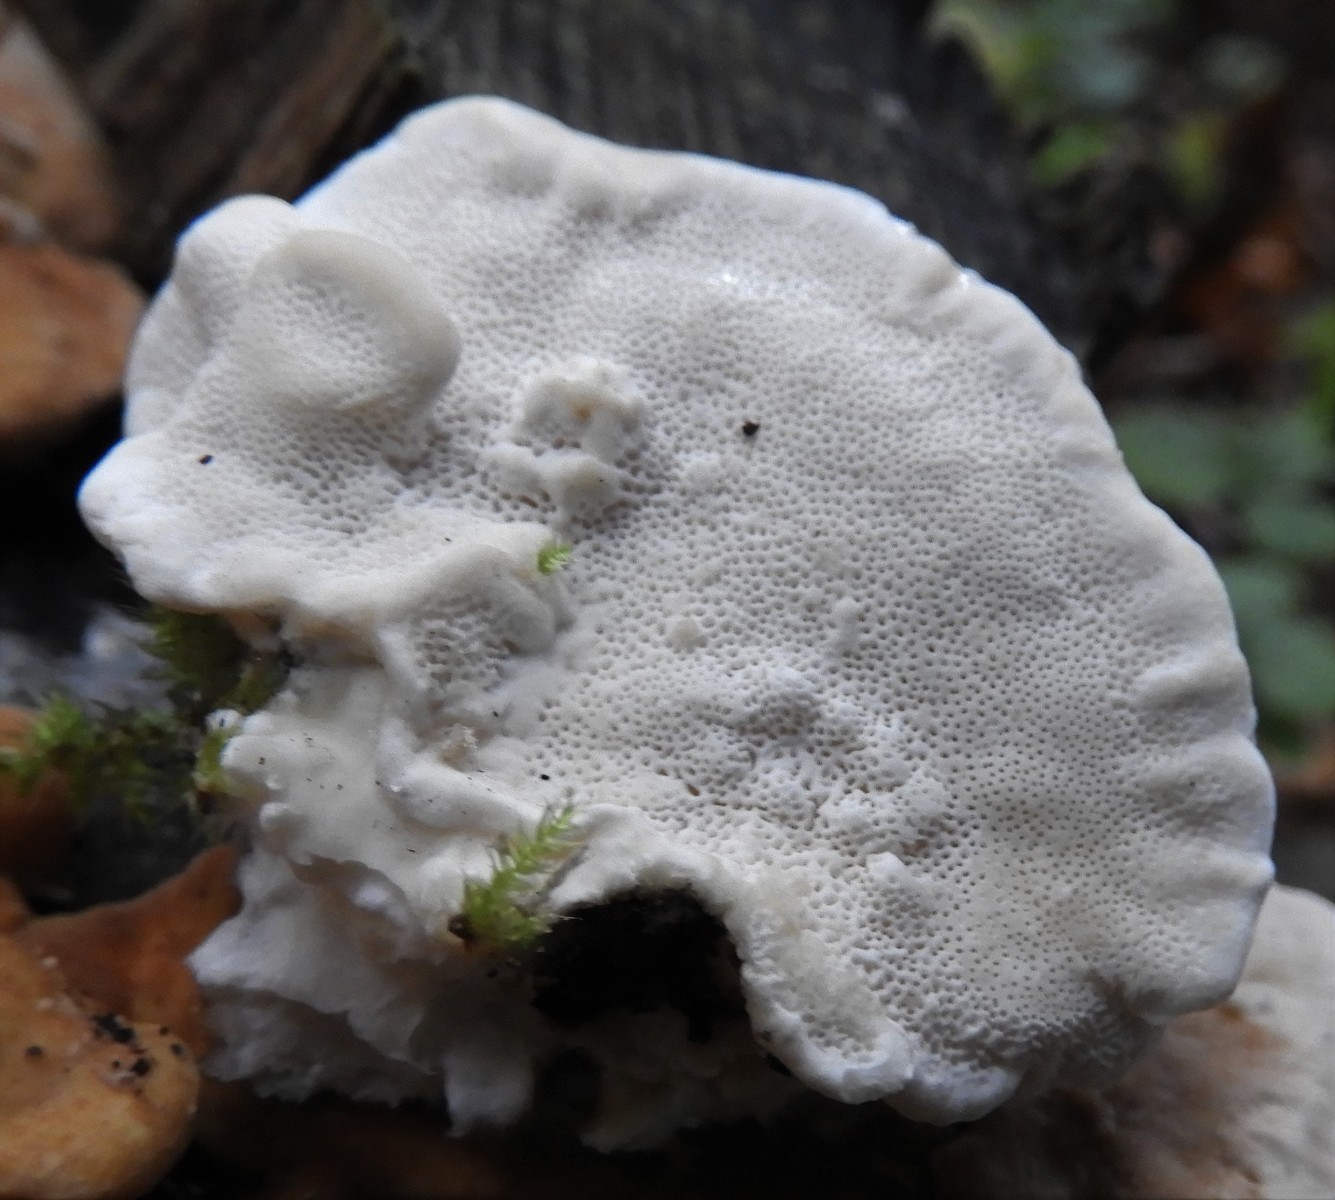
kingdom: Fungi
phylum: Basidiomycota
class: Agaricomycetes
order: Polyporales
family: Polyporaceae
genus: Trametes
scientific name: Trametes ochracea
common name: bæltet læderporesvamp
